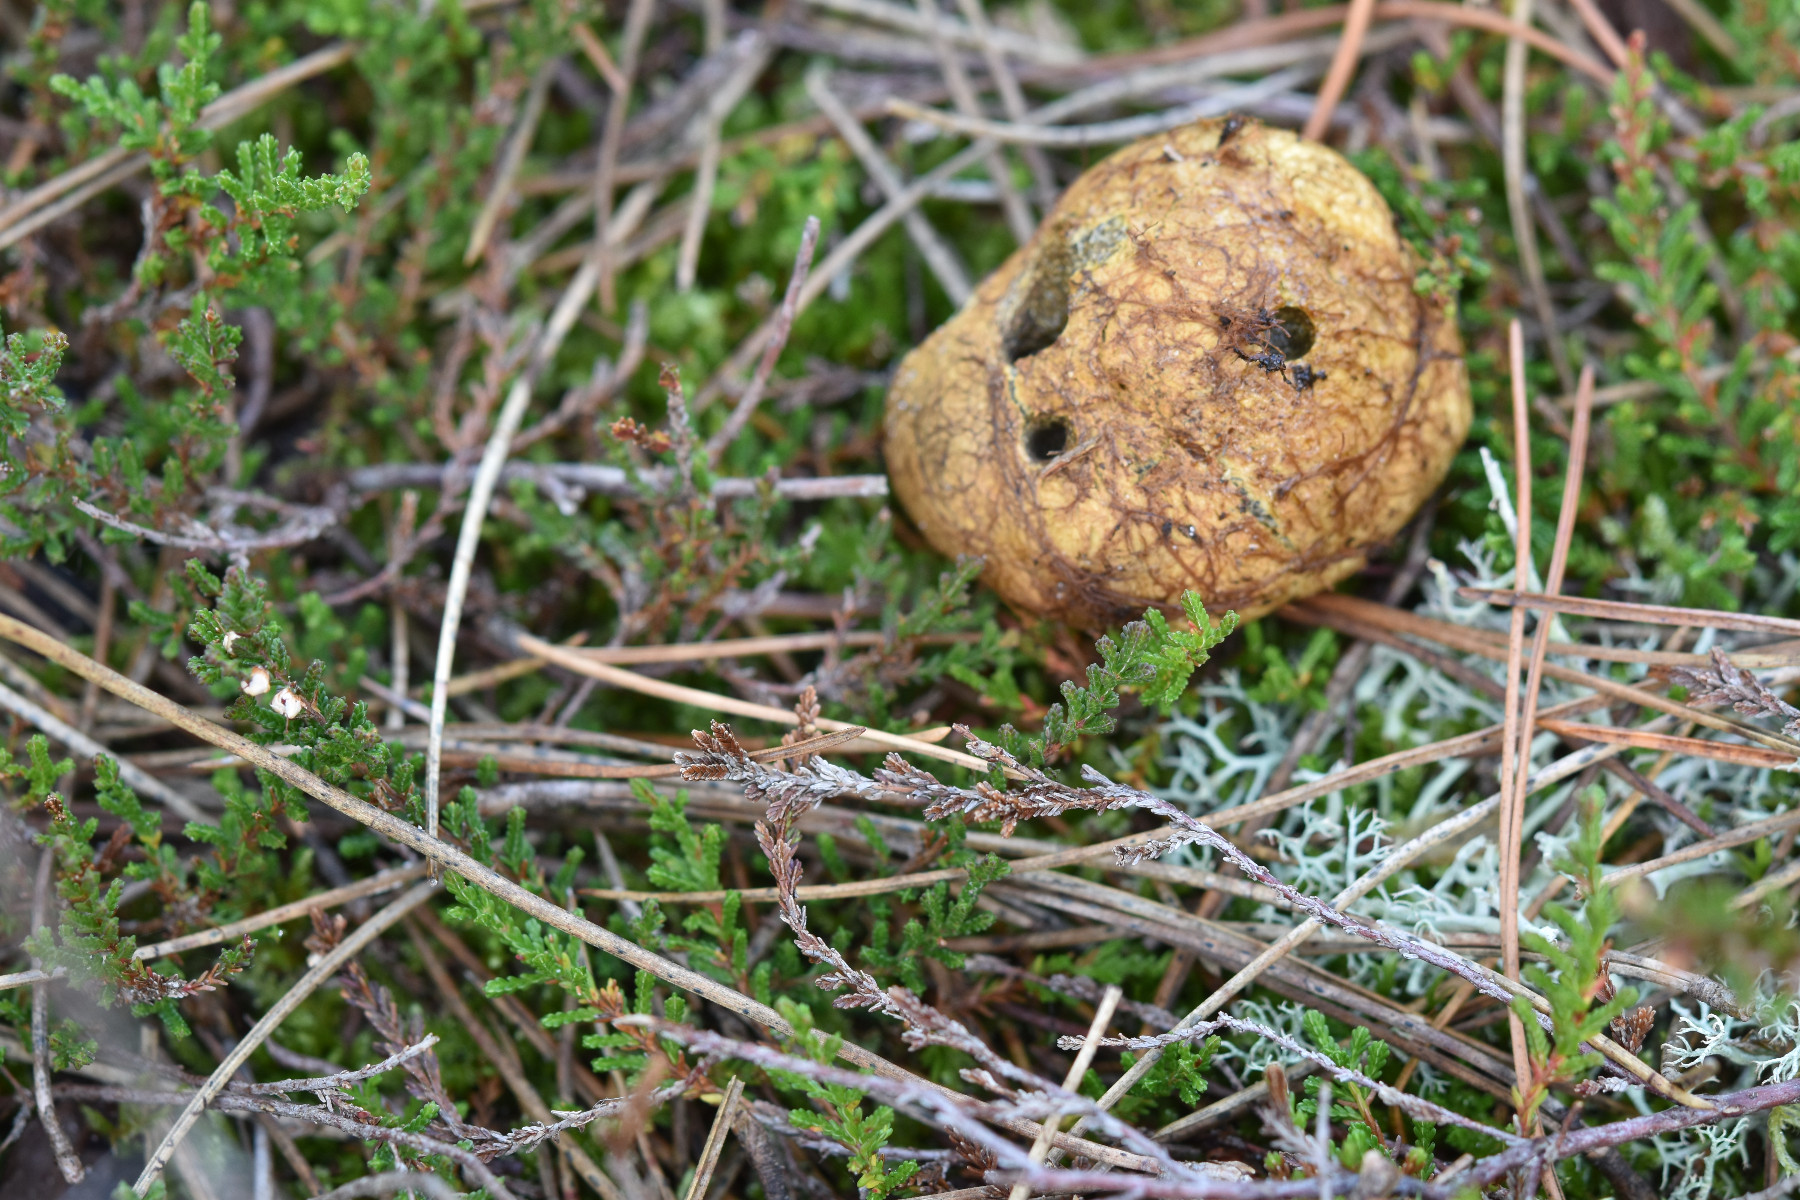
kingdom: Fungi
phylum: Basidiomycota
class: Agaricomycetes
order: Boletales
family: Rhizopogonaceae
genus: Rhizopogon
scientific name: Rhizopogon obtextus
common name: gul skægtrøffel
